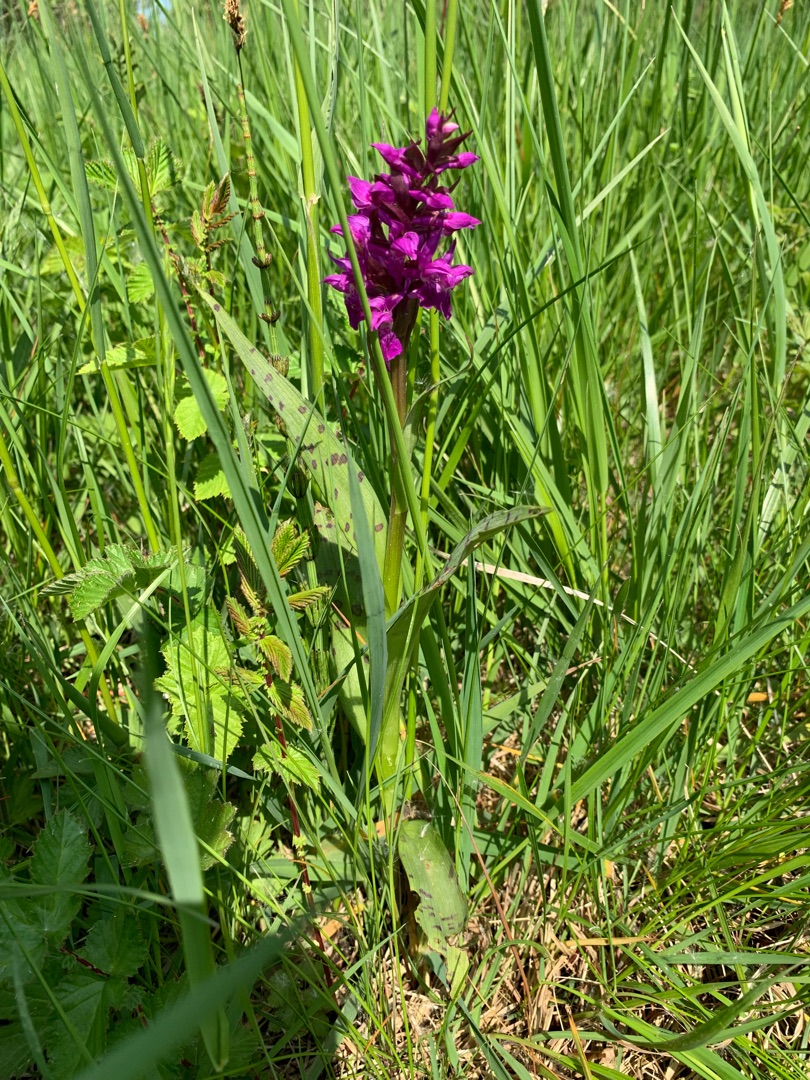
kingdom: Plantae
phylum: Tracheophyta
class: Liliopsida
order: Asparagales
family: Orchidaceae
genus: Dactylorhiza
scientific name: Dactylorhiza majalis
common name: Maj-gøgeurt
